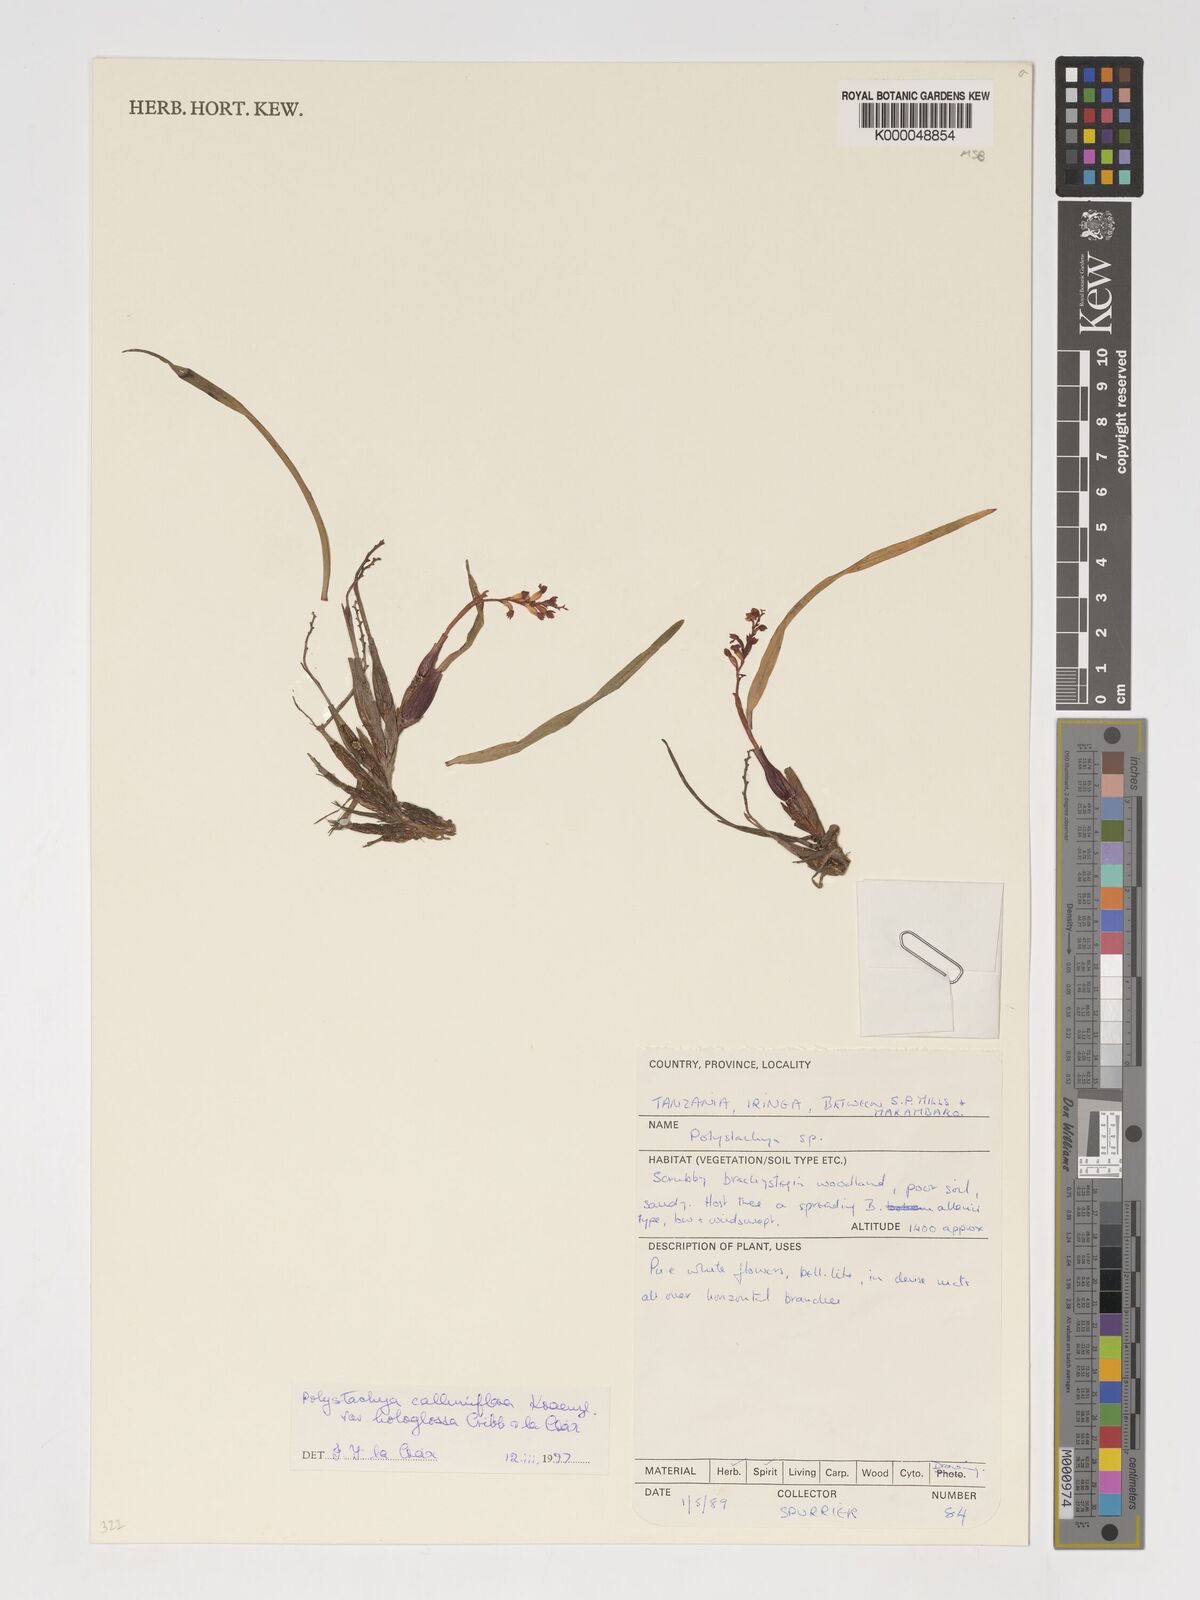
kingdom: Plantae
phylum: Tracheophyta
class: Liliopsida
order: Asparagales
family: Orchidaceae
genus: Polystachya
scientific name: Polystachya hologlossa
